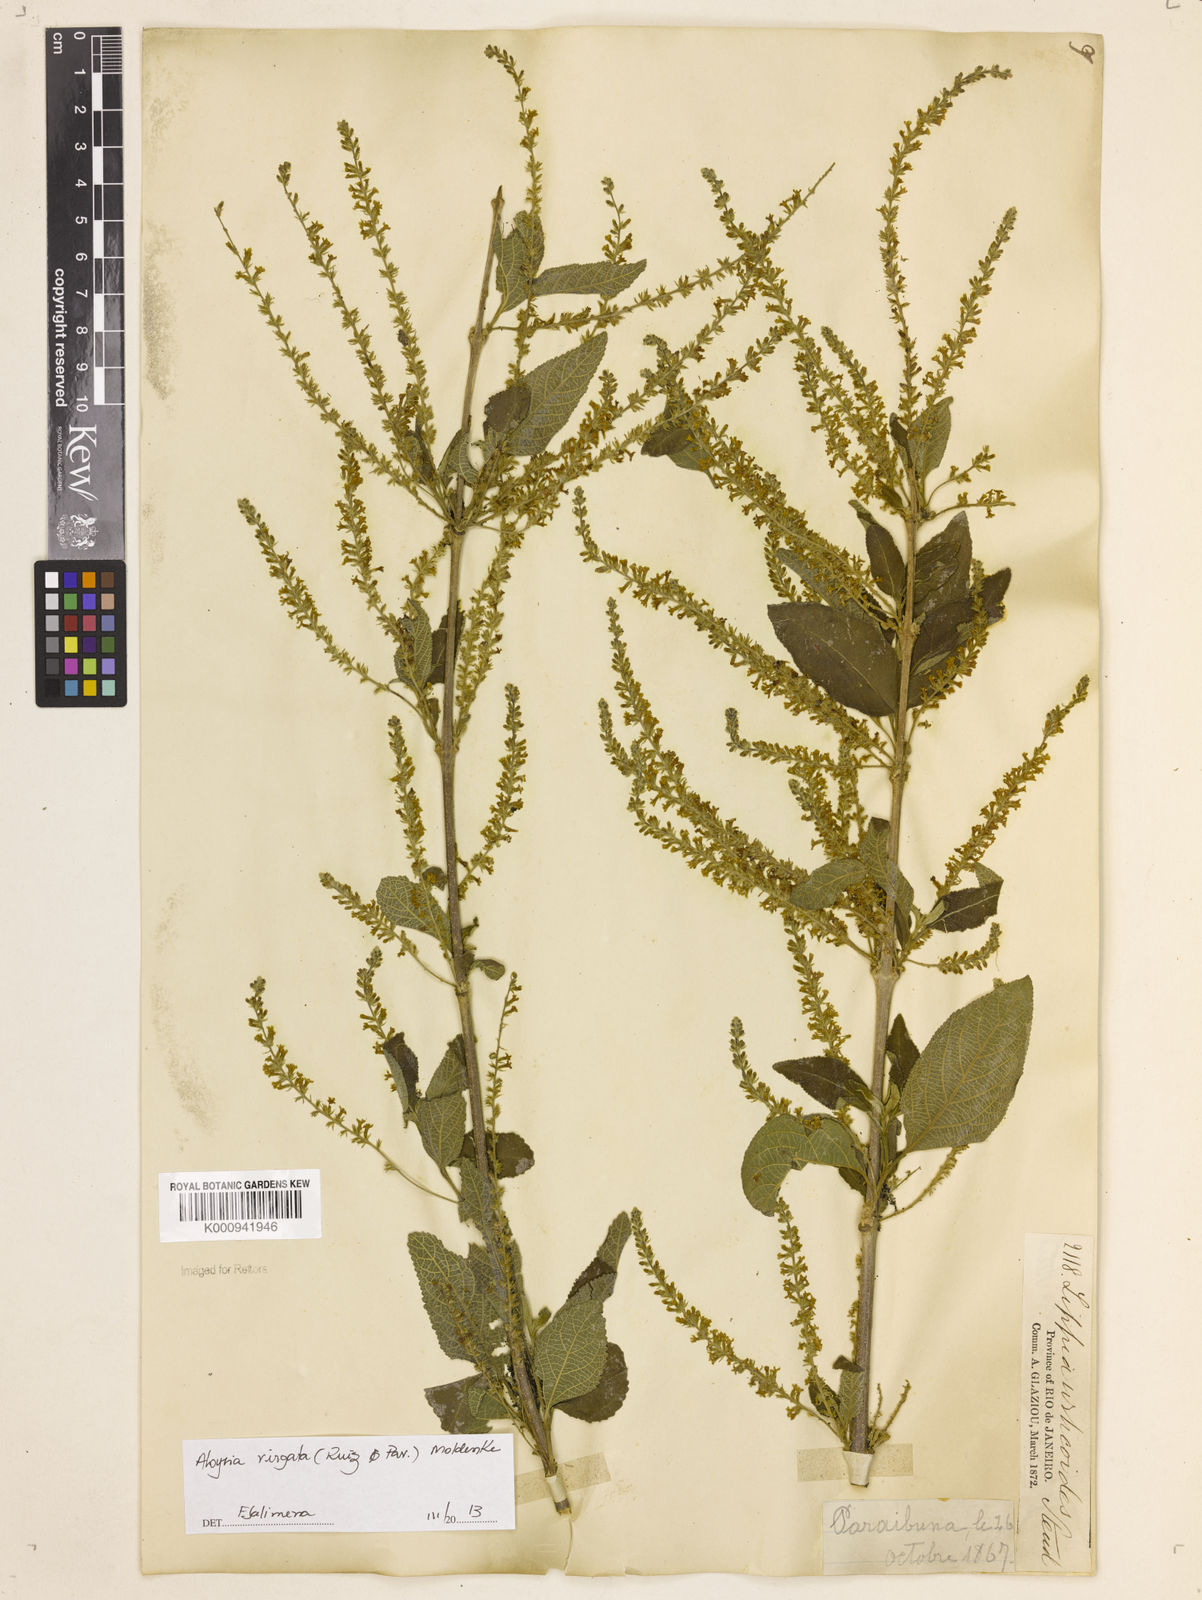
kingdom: Plantae
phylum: Tracheophyta
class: Magnoliopsida
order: Lamiales
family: Verbenaceae
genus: Aloysia
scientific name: Aloysia
